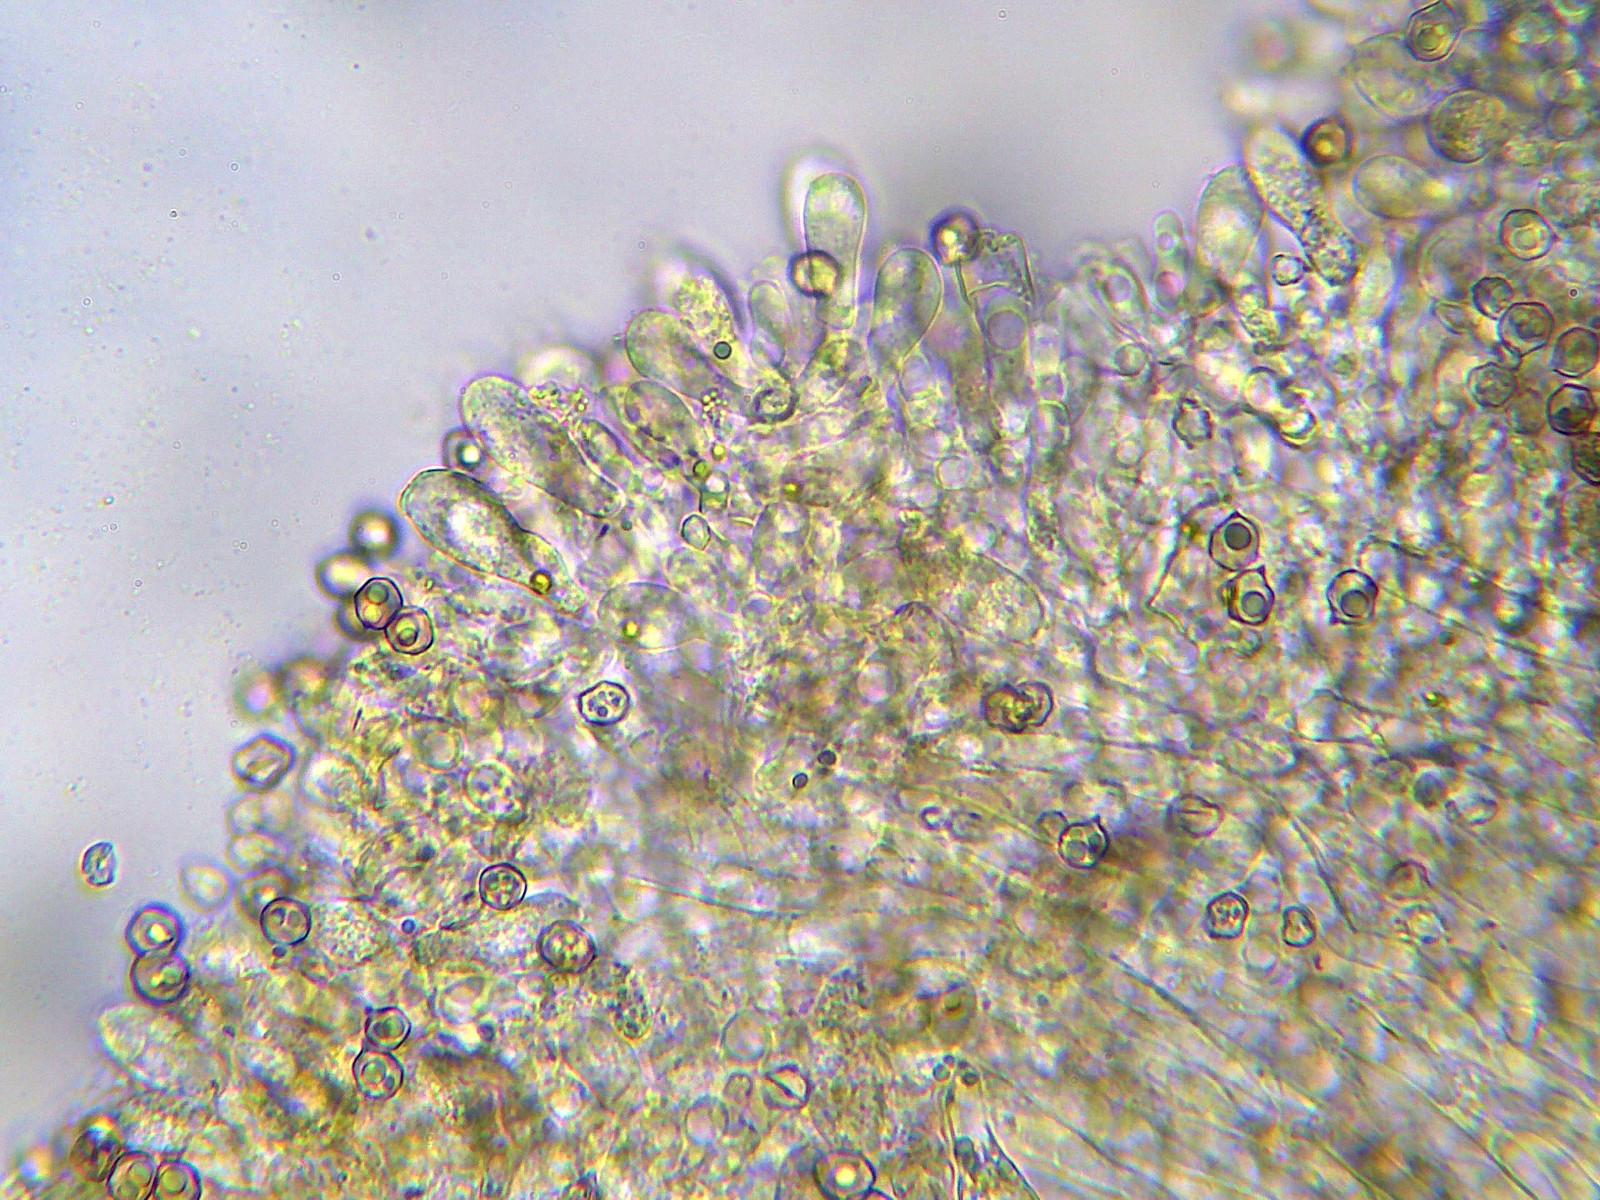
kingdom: Fungi
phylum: Basidiomycota
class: Agaricomycetes
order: Agaricales
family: Entolomataceae
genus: Entoloma
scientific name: Entoloma sericeum
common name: silkeglinsende rødblad
